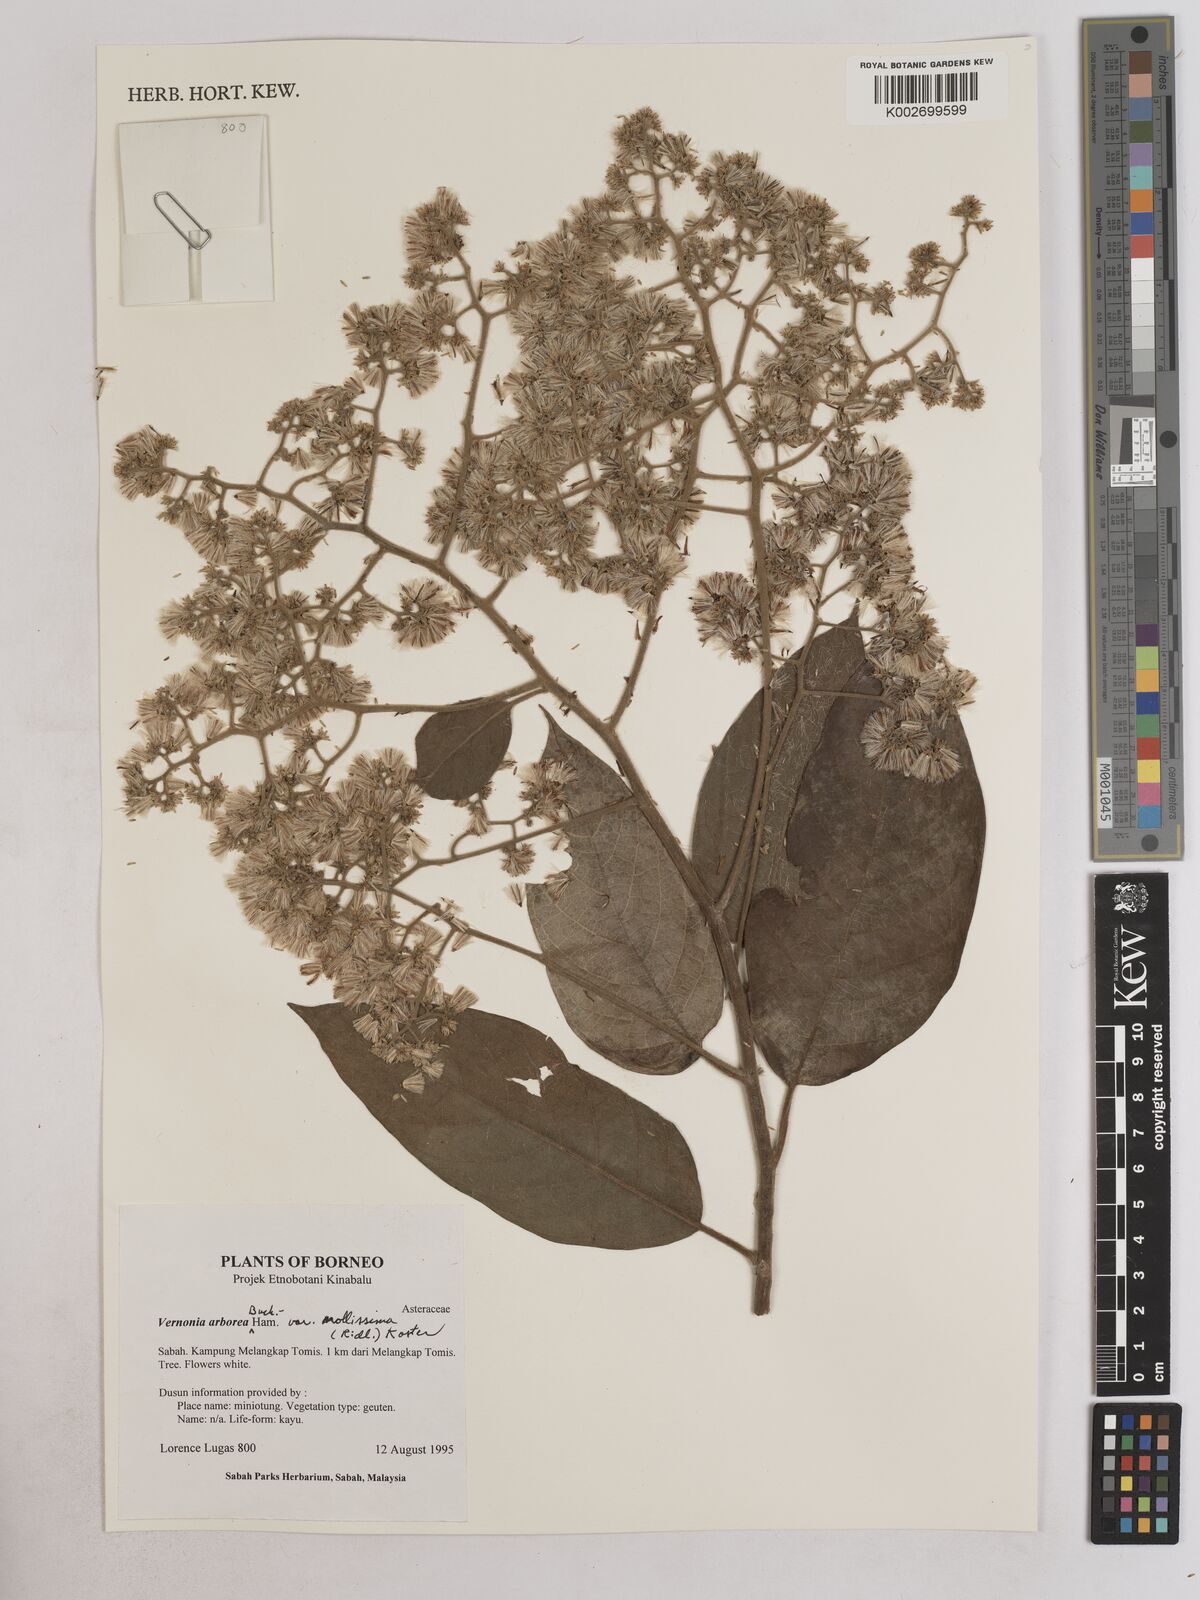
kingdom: Plantae
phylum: Tracheophyta
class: Magnoliopsida
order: Asterales
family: Asteraceae
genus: Strobocalyx
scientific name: Strobocalyx arborea
